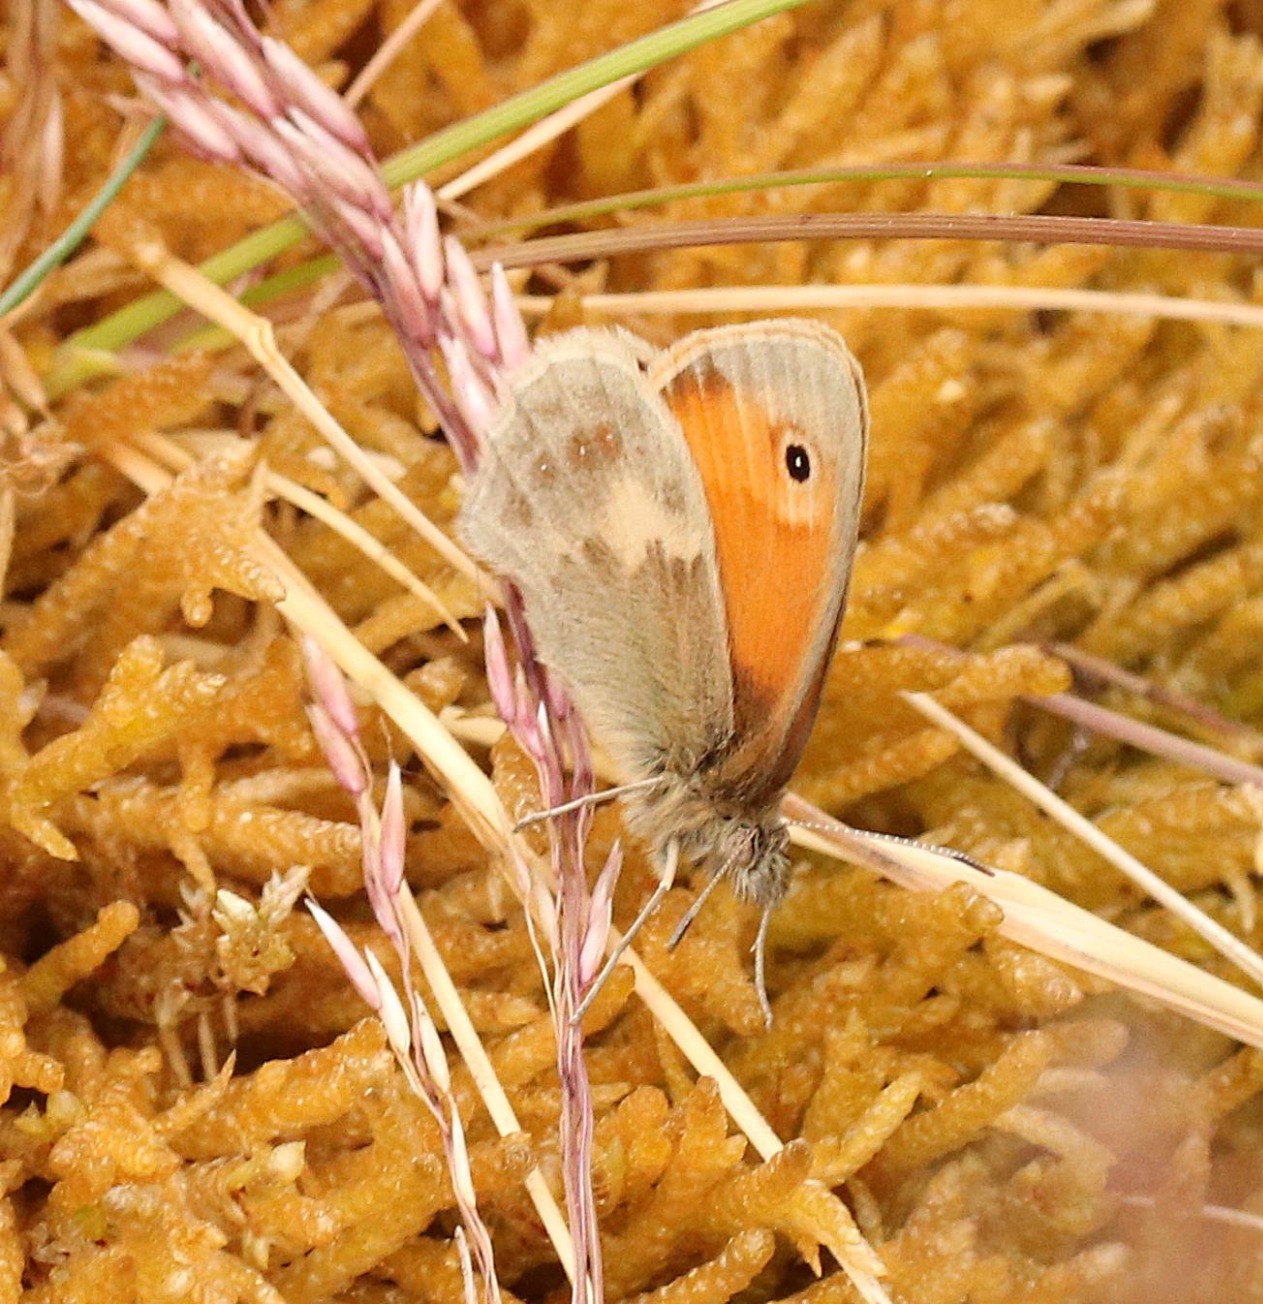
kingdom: Animalia
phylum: Arthropoda
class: Insecta
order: Lepidoptera
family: Nymphalidae
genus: Coenonympha
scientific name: Coenonympha pamphilus
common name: Okkergul randøje
